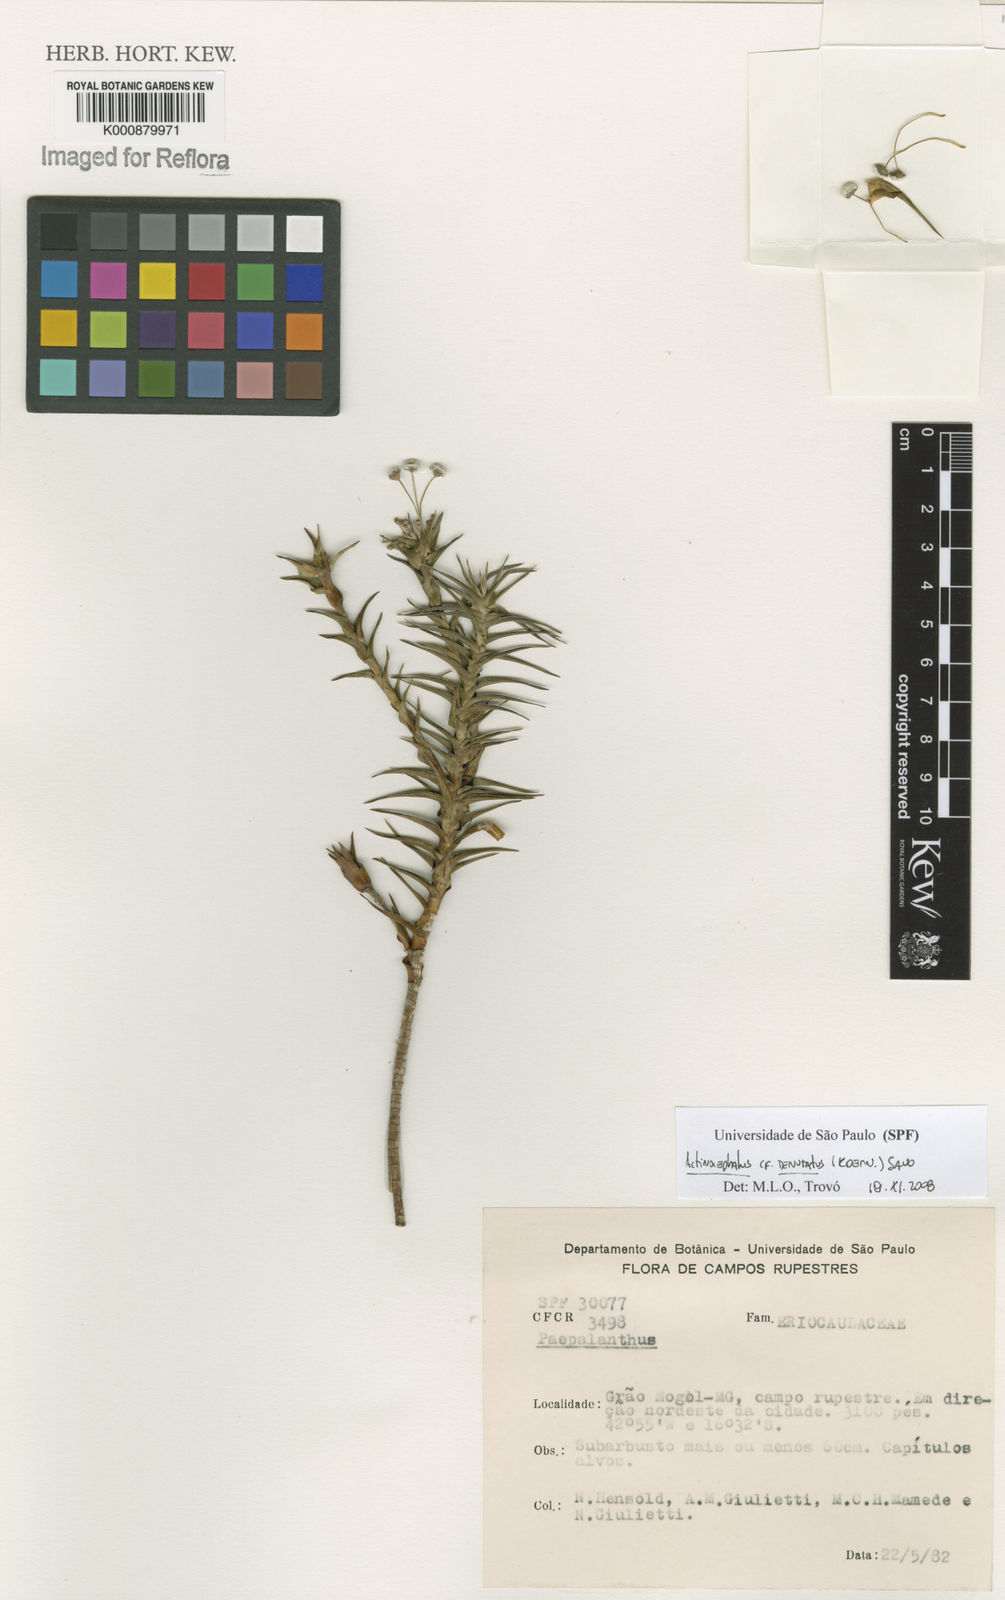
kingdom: Plantae
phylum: Tracheophyta
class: Liliopsida
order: Poales
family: Eriocaulaceae
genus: Paepalanthus
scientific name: Paepalanthus
